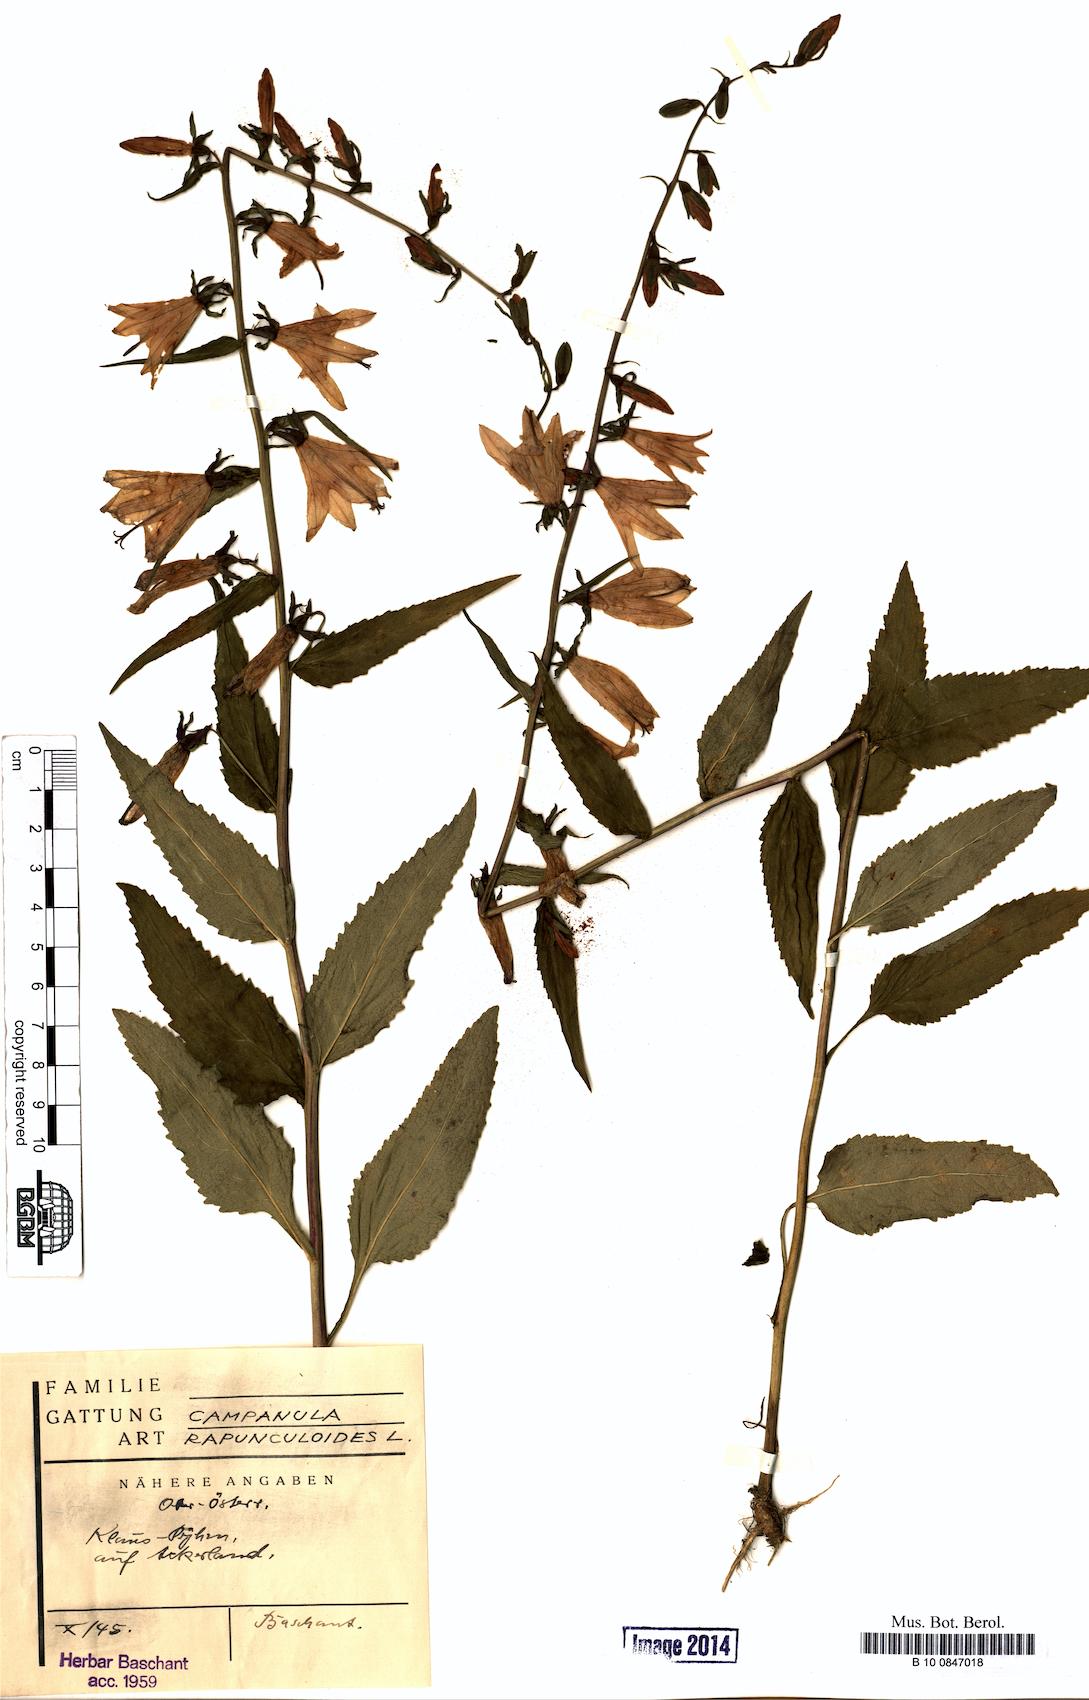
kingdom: Plantae
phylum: Tracheophyta
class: Magnoliopsida
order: Asterales
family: Campanulaceae
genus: Campanula
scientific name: Campanula rapunculoides
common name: Creeping bellflower
